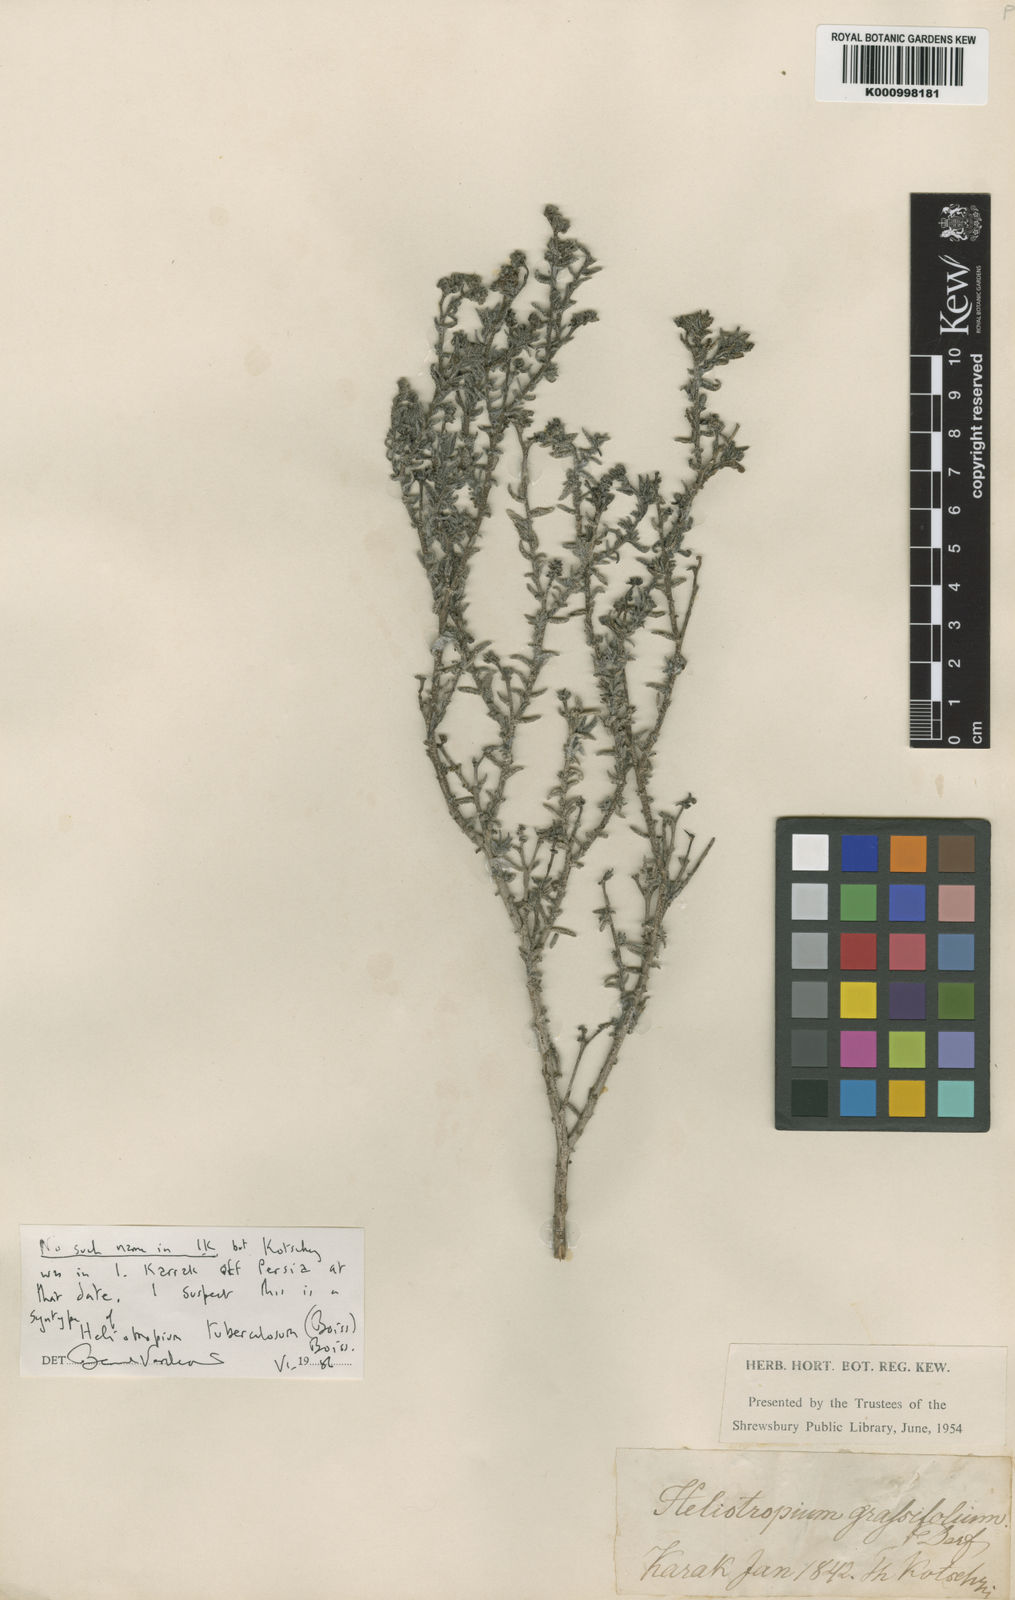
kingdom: Plantae
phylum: Tracheophyta
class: Magnoliopsida
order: Boraginales
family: Heliotropiaceae
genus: Heliotropium
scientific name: Heliotropium bacciferum
